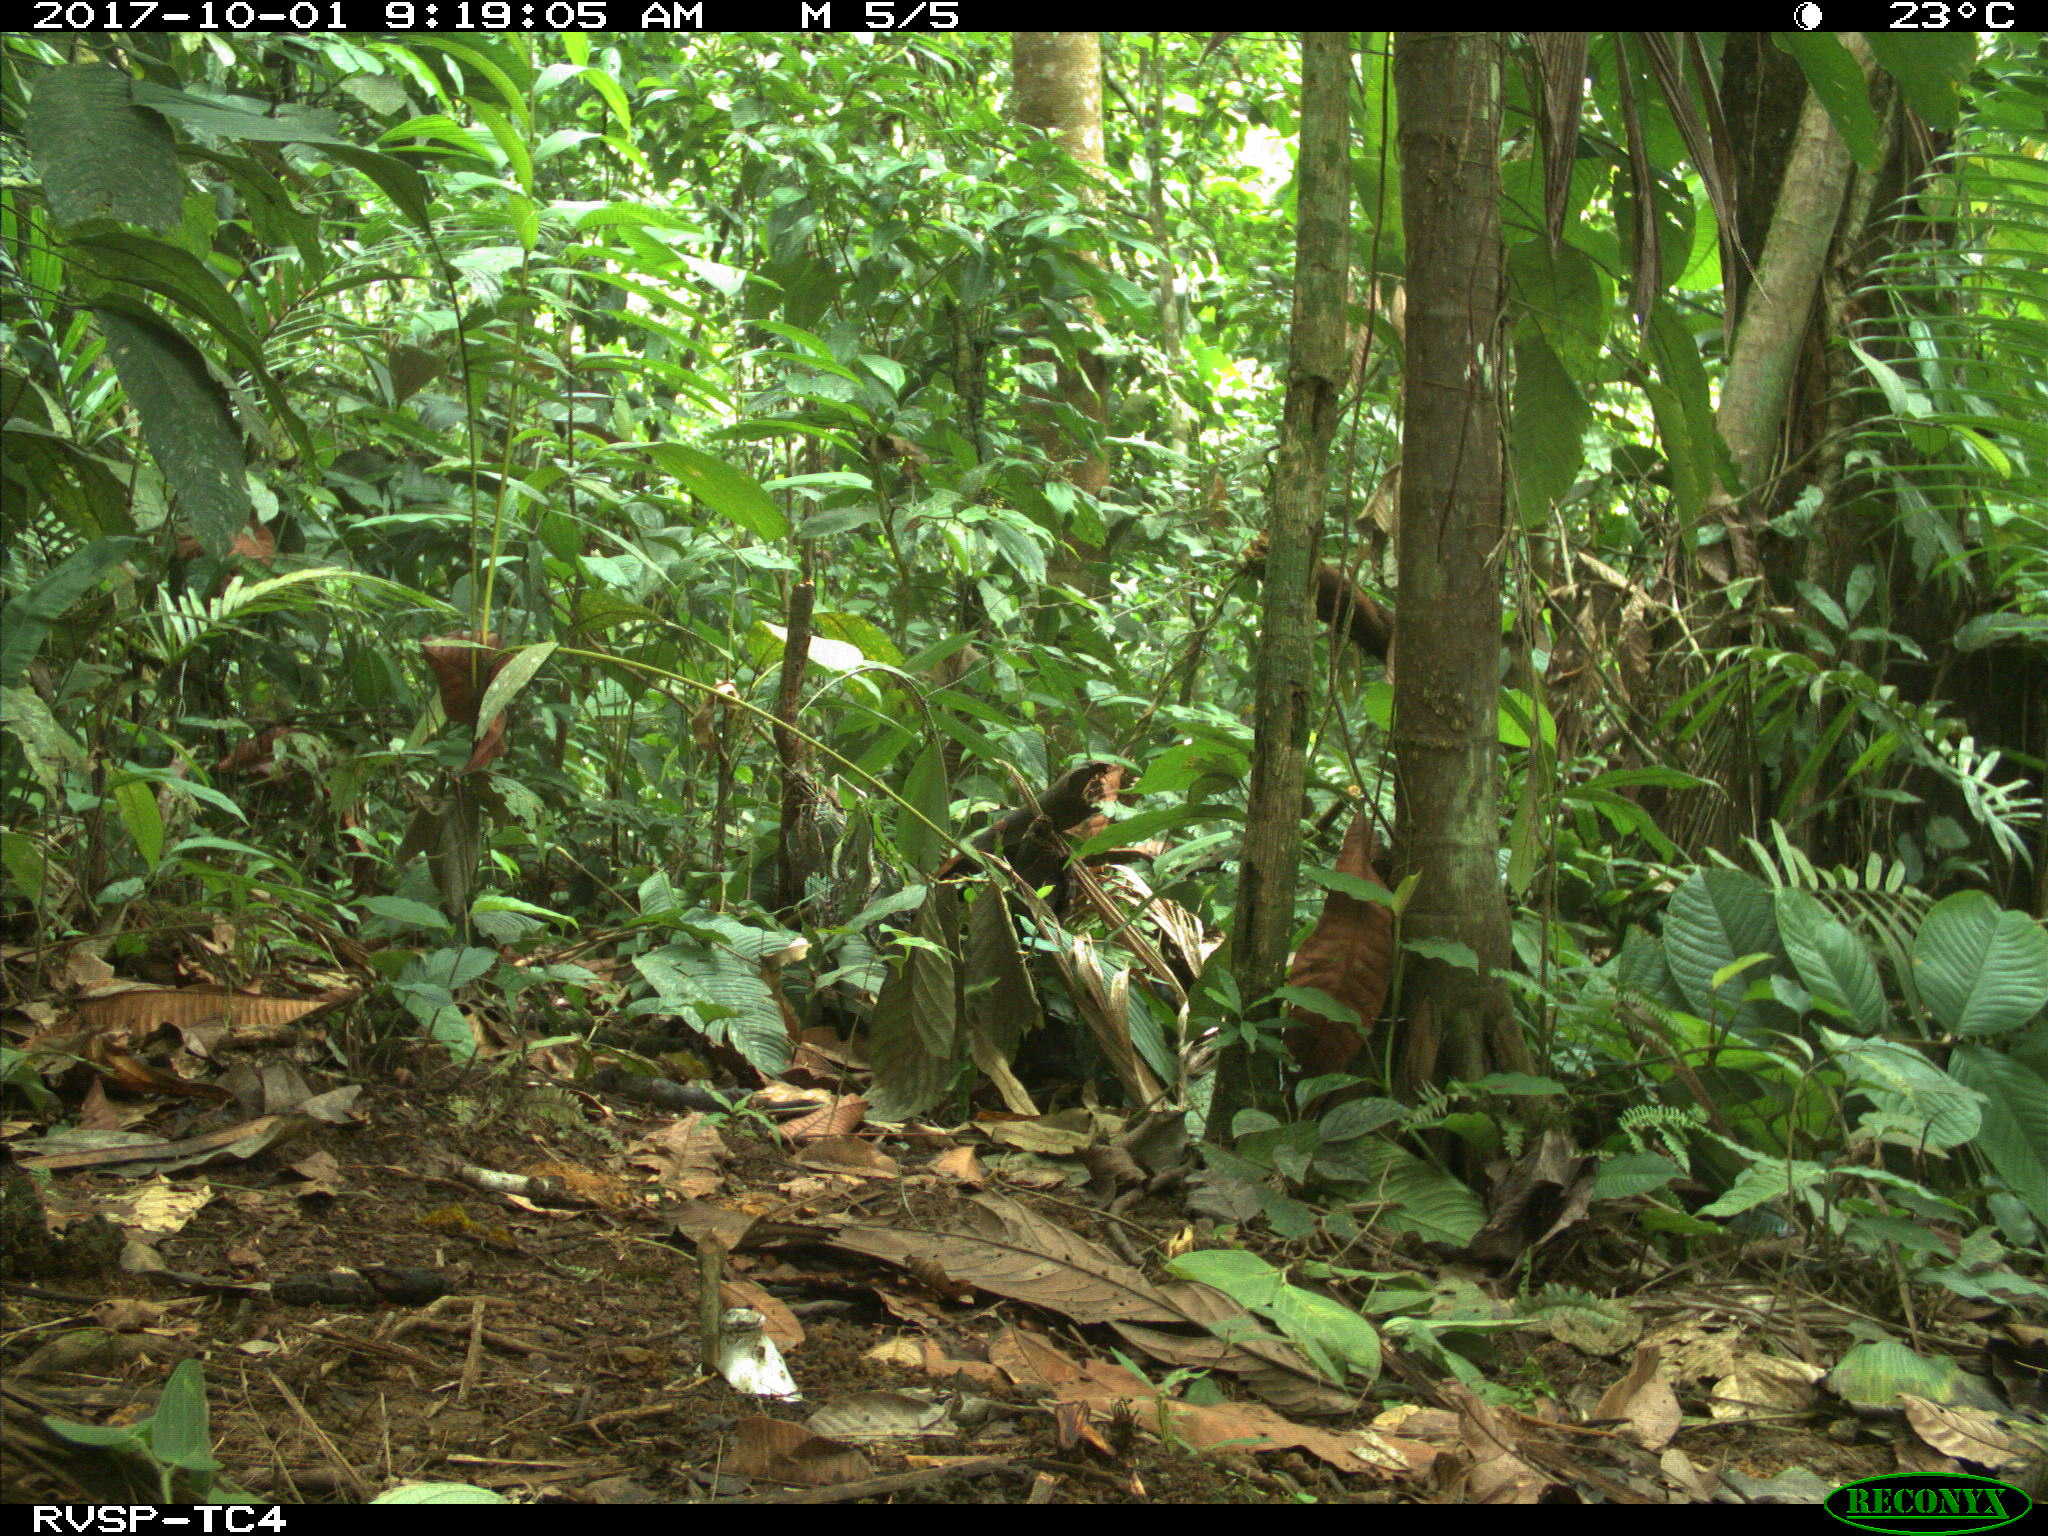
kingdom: Animalia
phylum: Chordata
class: Mammalia
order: Artiodactyla
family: Cervidae
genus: Mazama
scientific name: Mazama americana
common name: Red brocket
